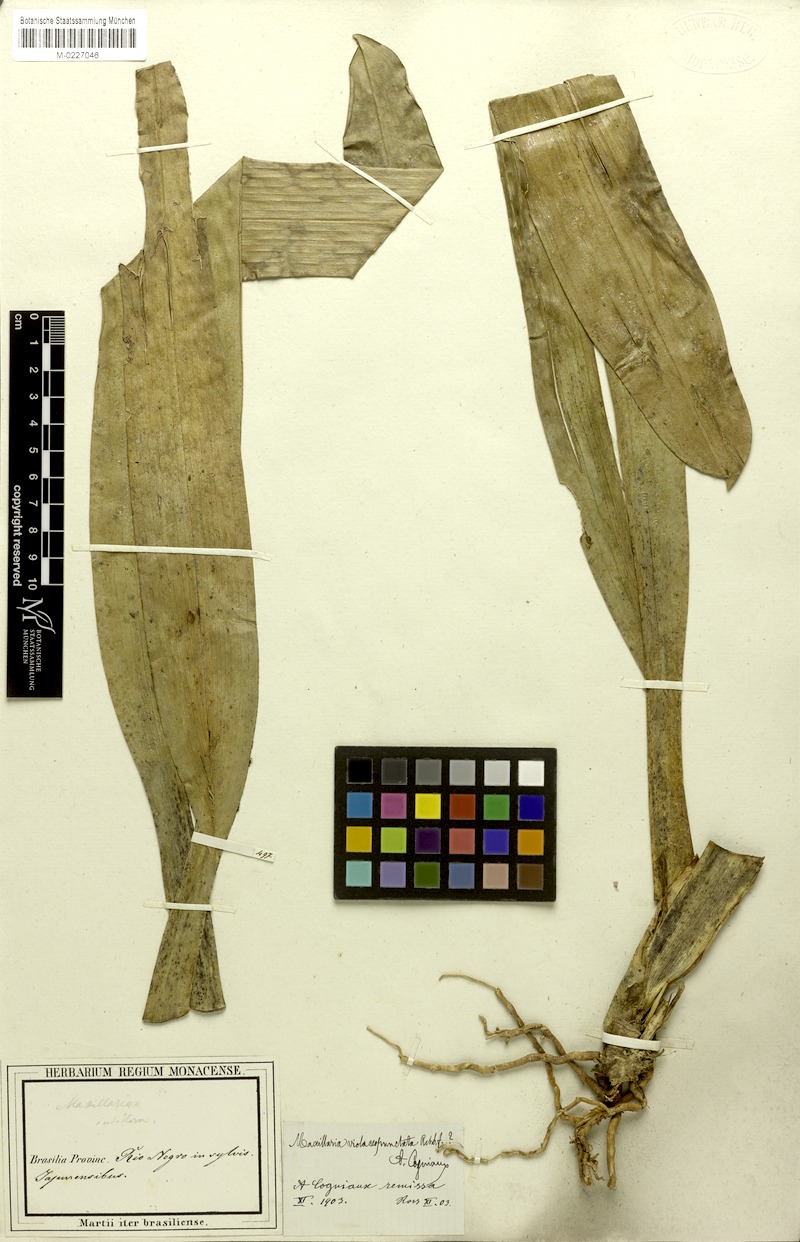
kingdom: Plantae
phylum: Tracheophyta
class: Liliopsida
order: Asparagales
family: Orchidaceae
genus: Maxillaria
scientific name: Maxillaria violaceopunctata
